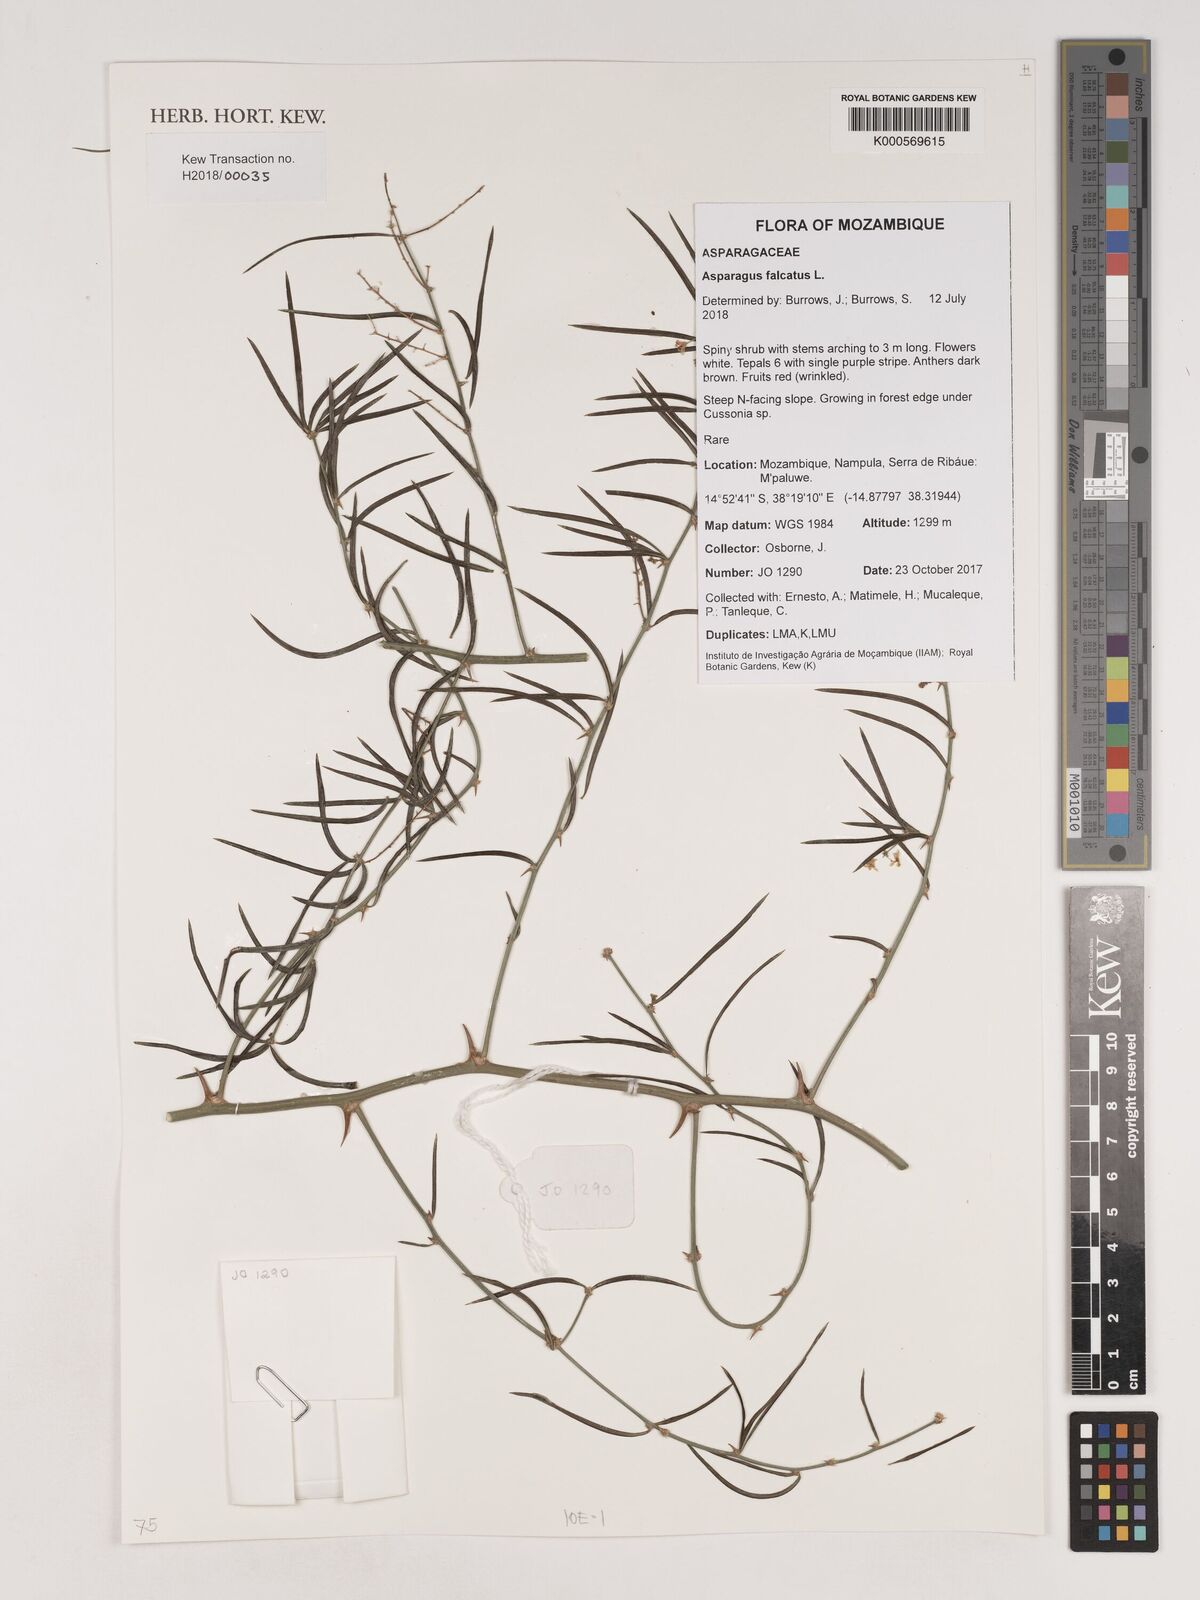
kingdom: Plantae
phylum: Tracheophyta
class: Liliopsida
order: Asparagales
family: Asparagaceae
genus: Asparagus
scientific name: Asparagus falcatus
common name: Asparagus
